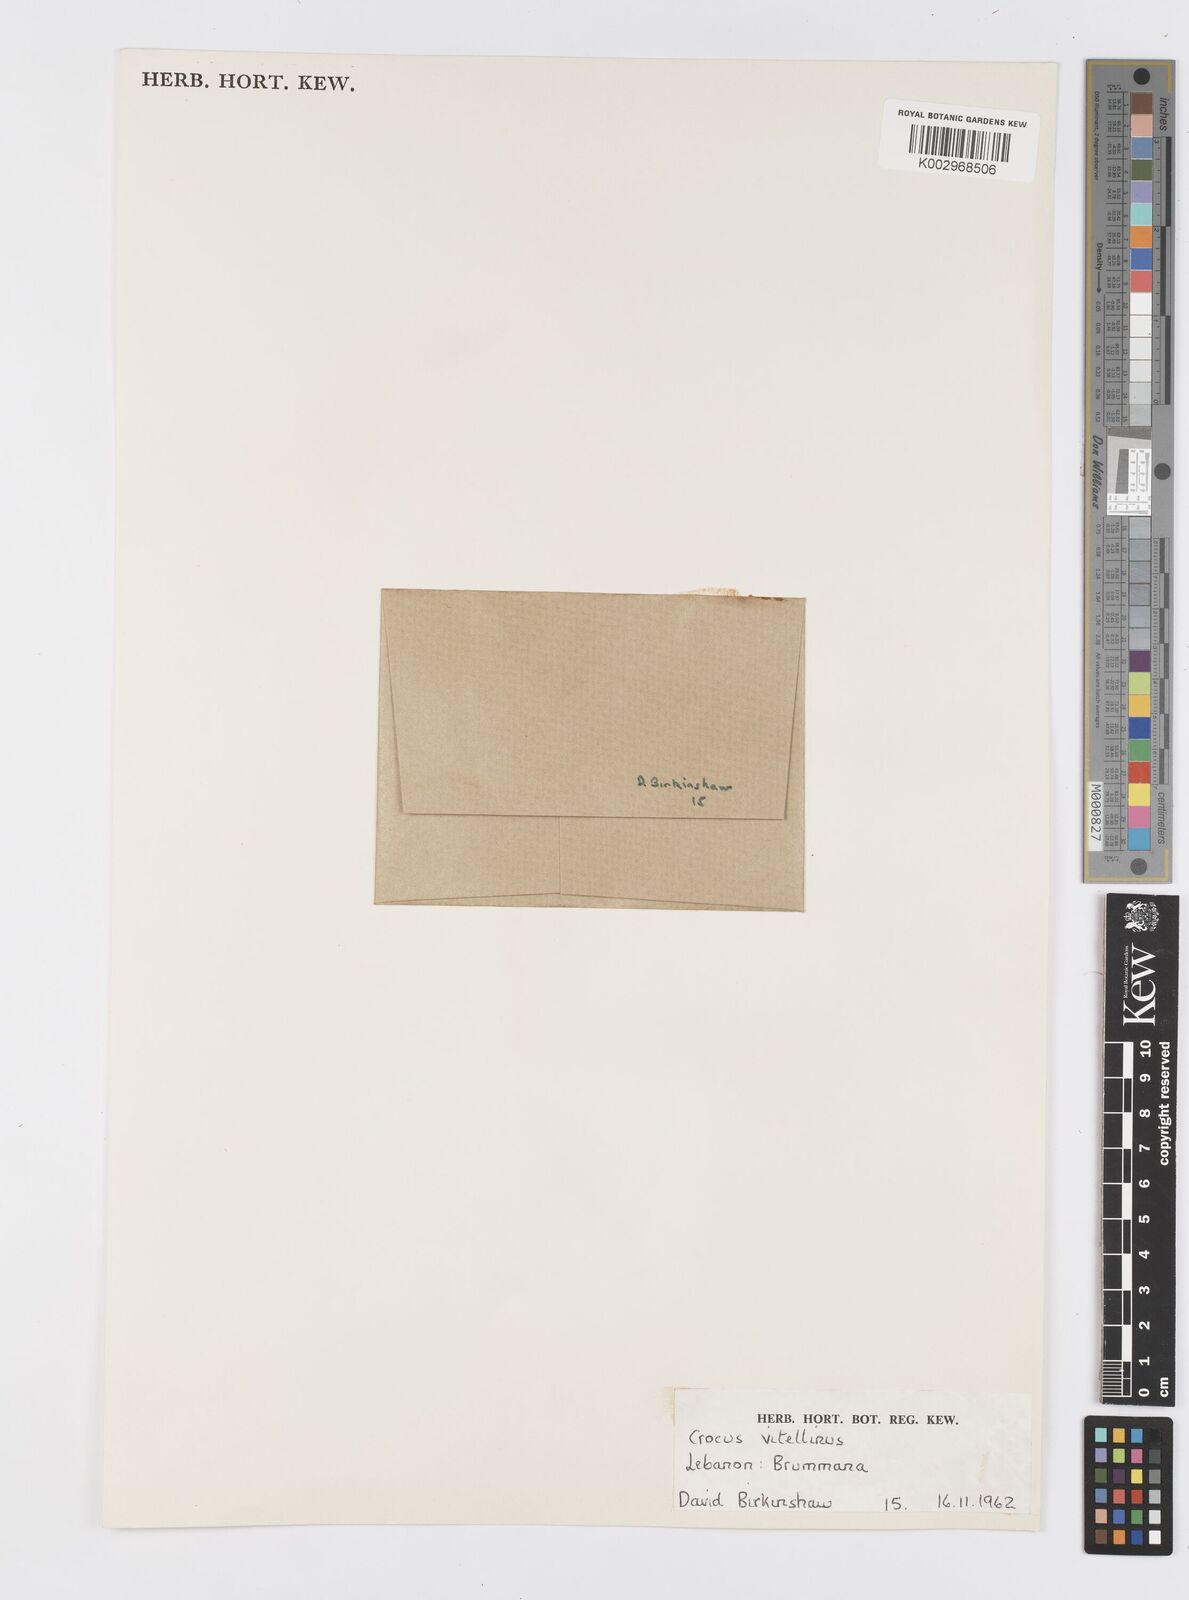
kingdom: Plantae
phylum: Tracheophyta
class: Liliopsida
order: Asparagales
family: Iridaceae
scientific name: Iridaceae
